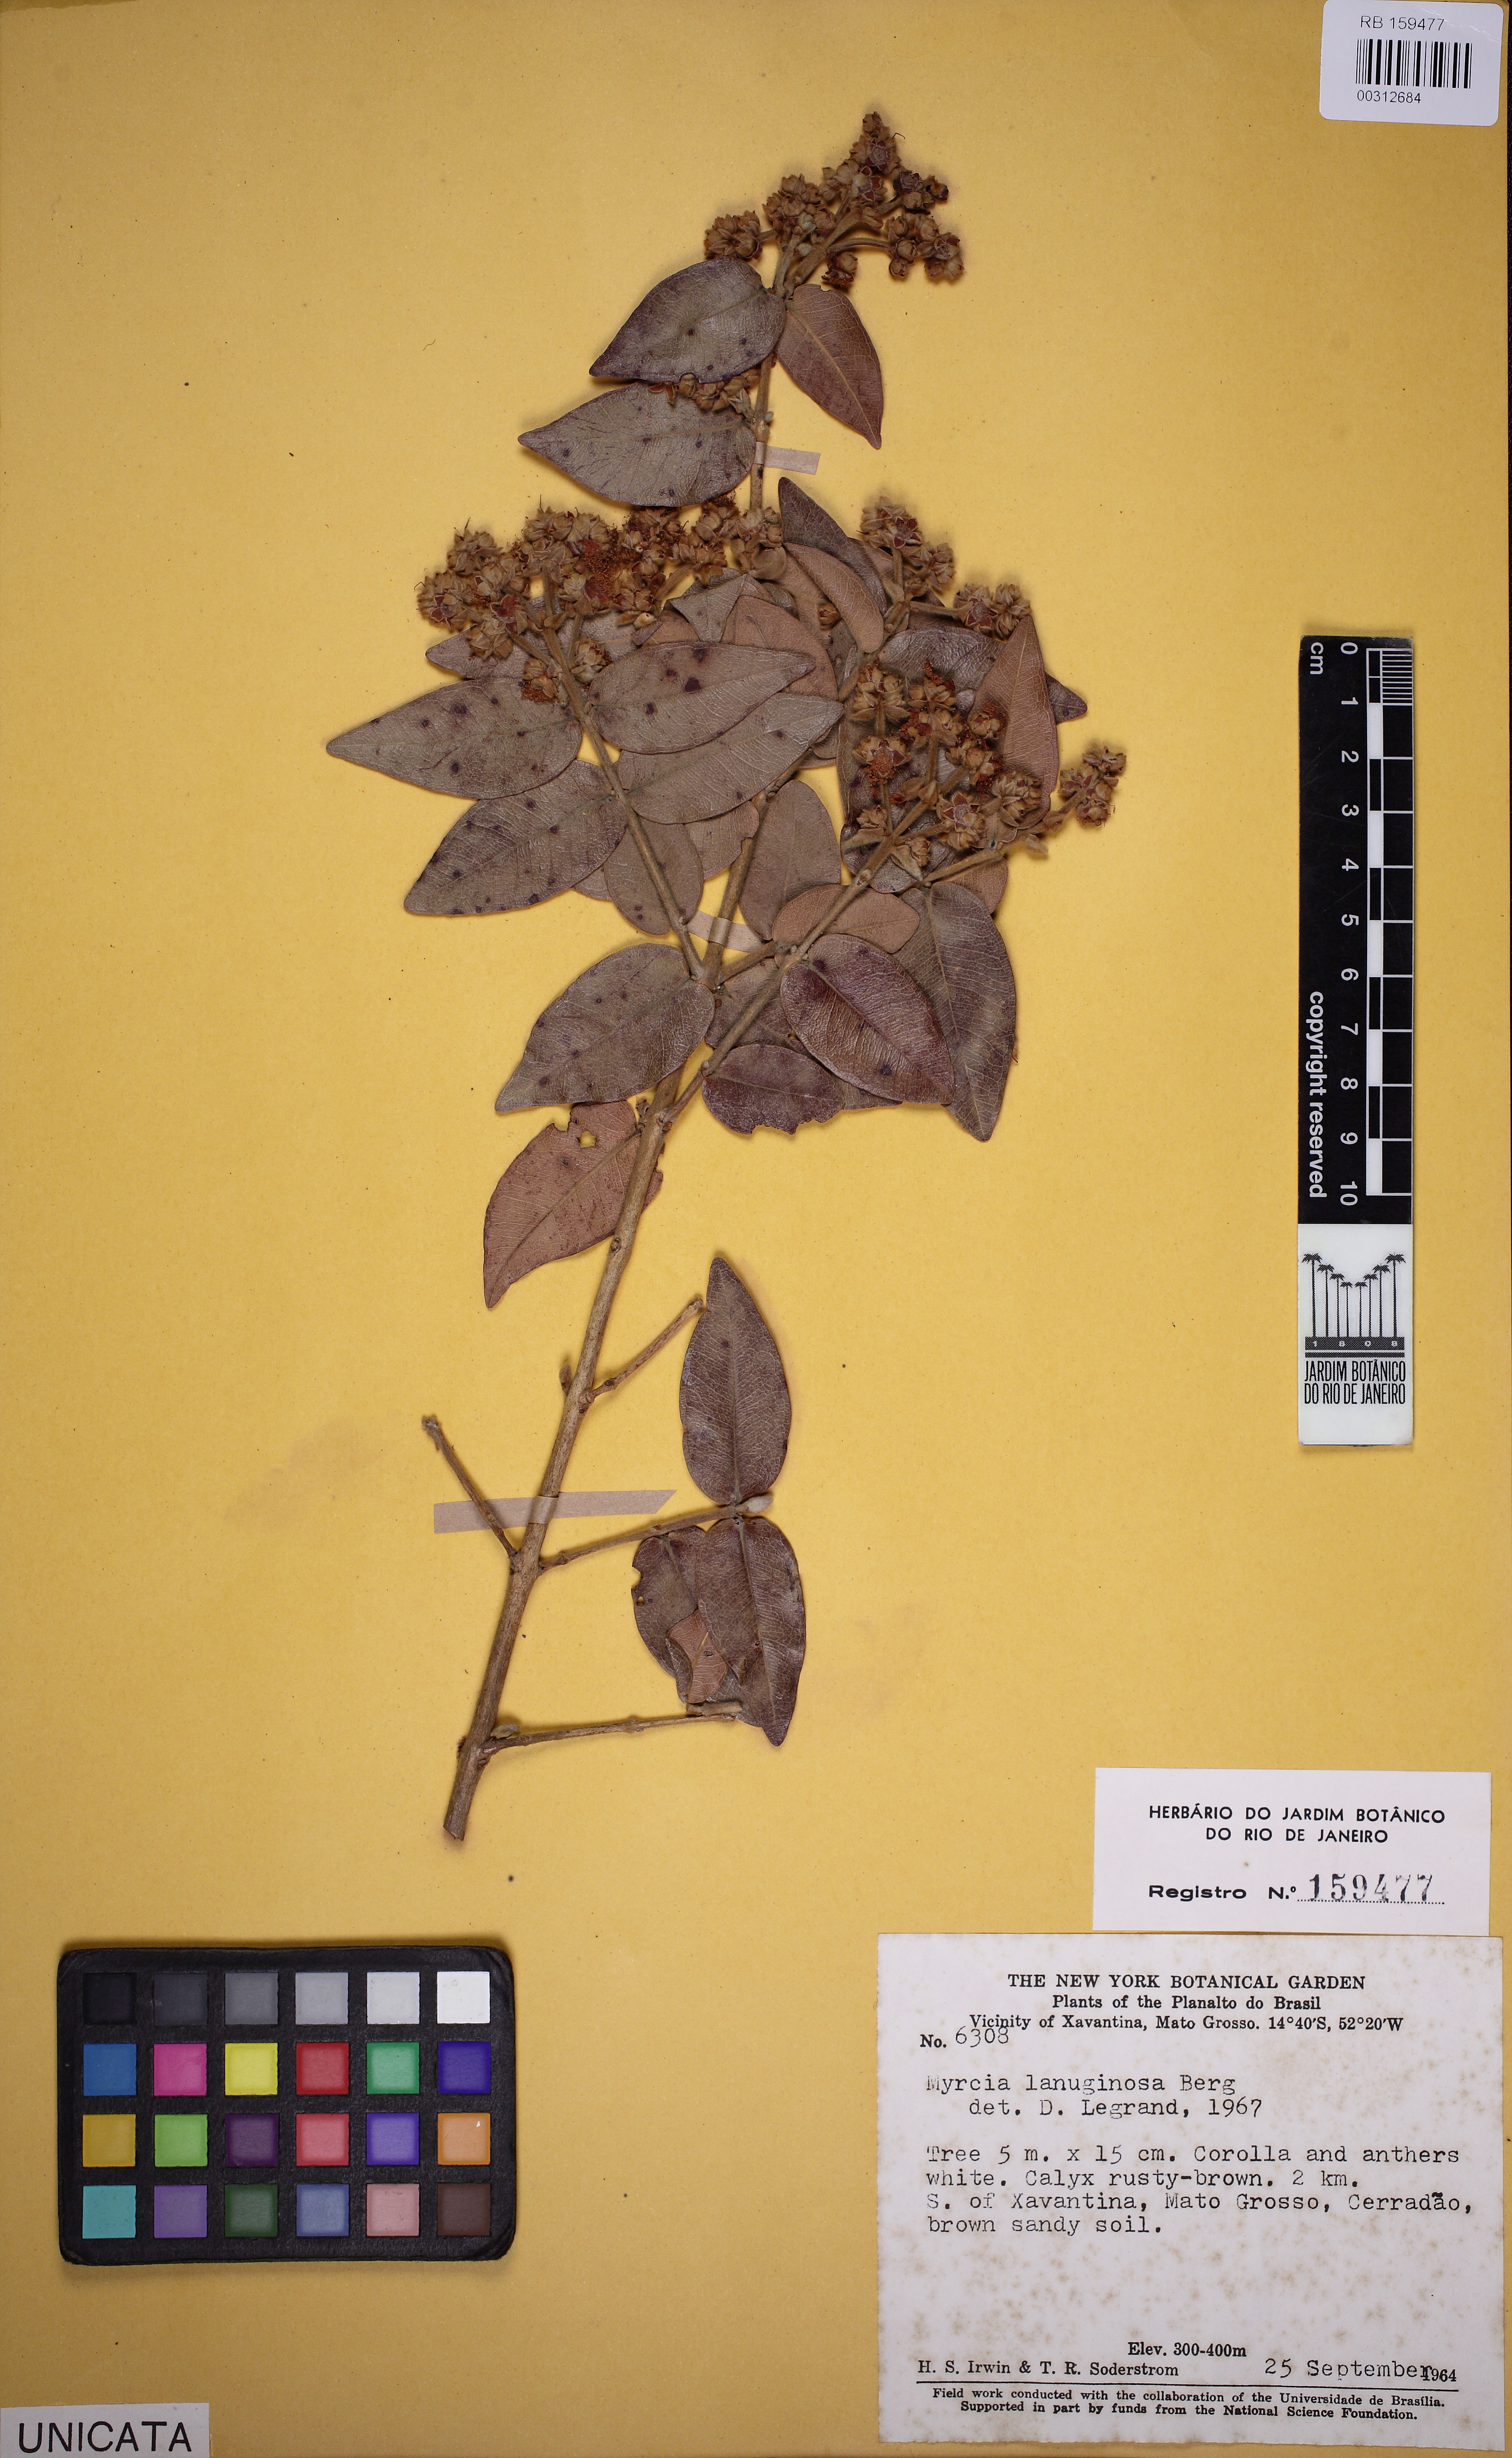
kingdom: Plantae
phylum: Tracheophyta
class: Magnoliopsida
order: Myrtales
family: Myrtaceae
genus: Myrcia
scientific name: Myrcia lanuginosa
